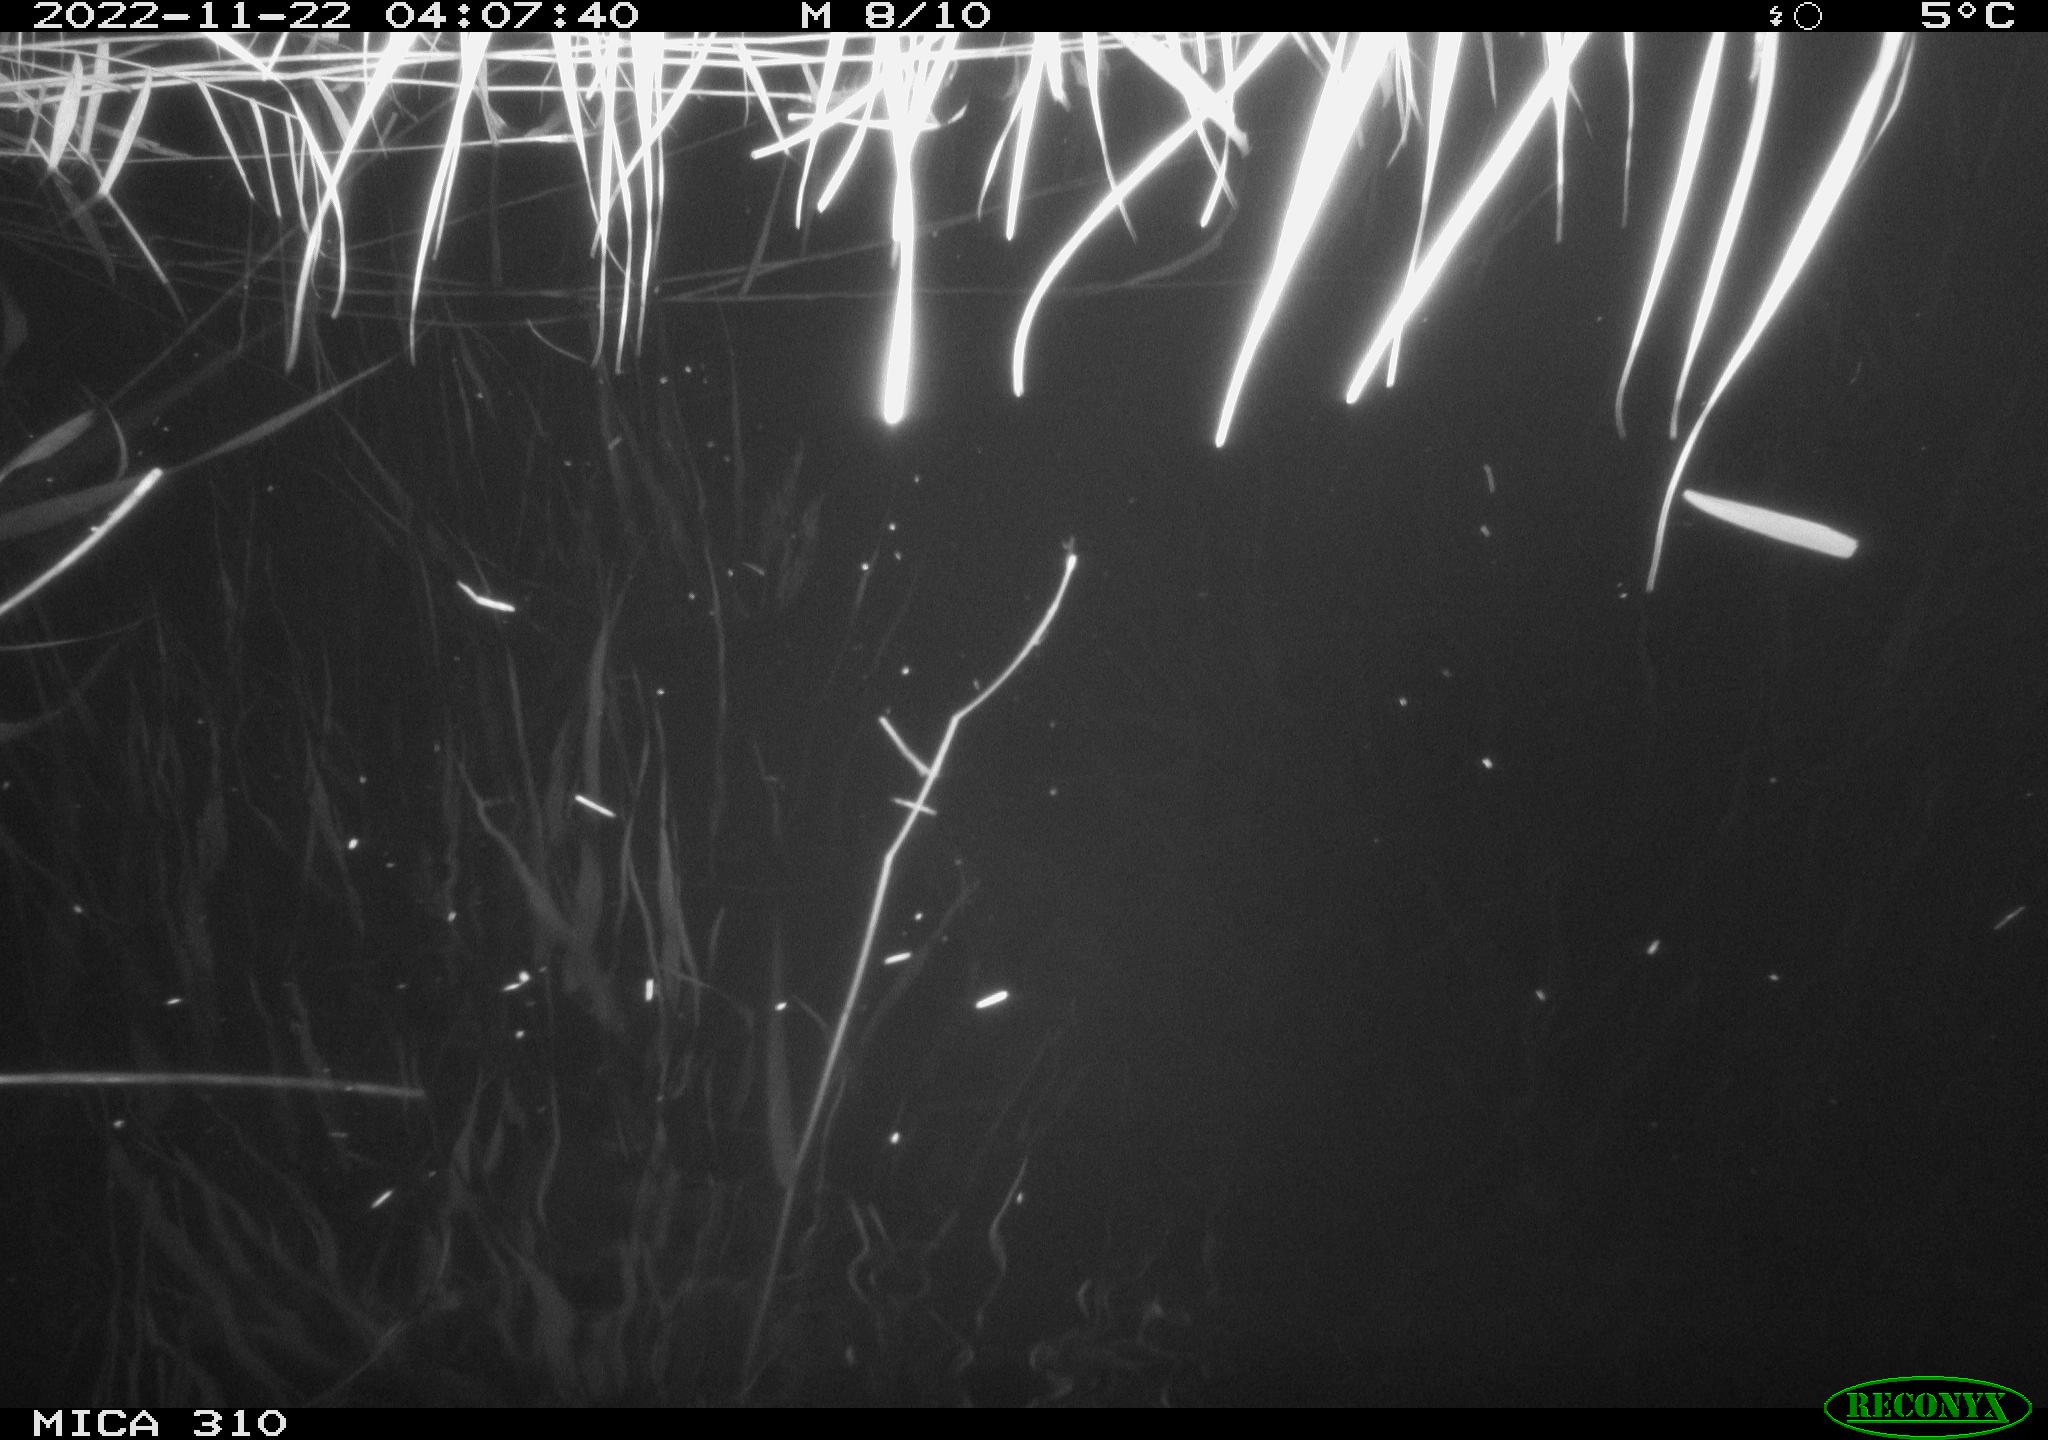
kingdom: Animalia
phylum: Chordata
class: Mammalia
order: Rodentia
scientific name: Rodentia
